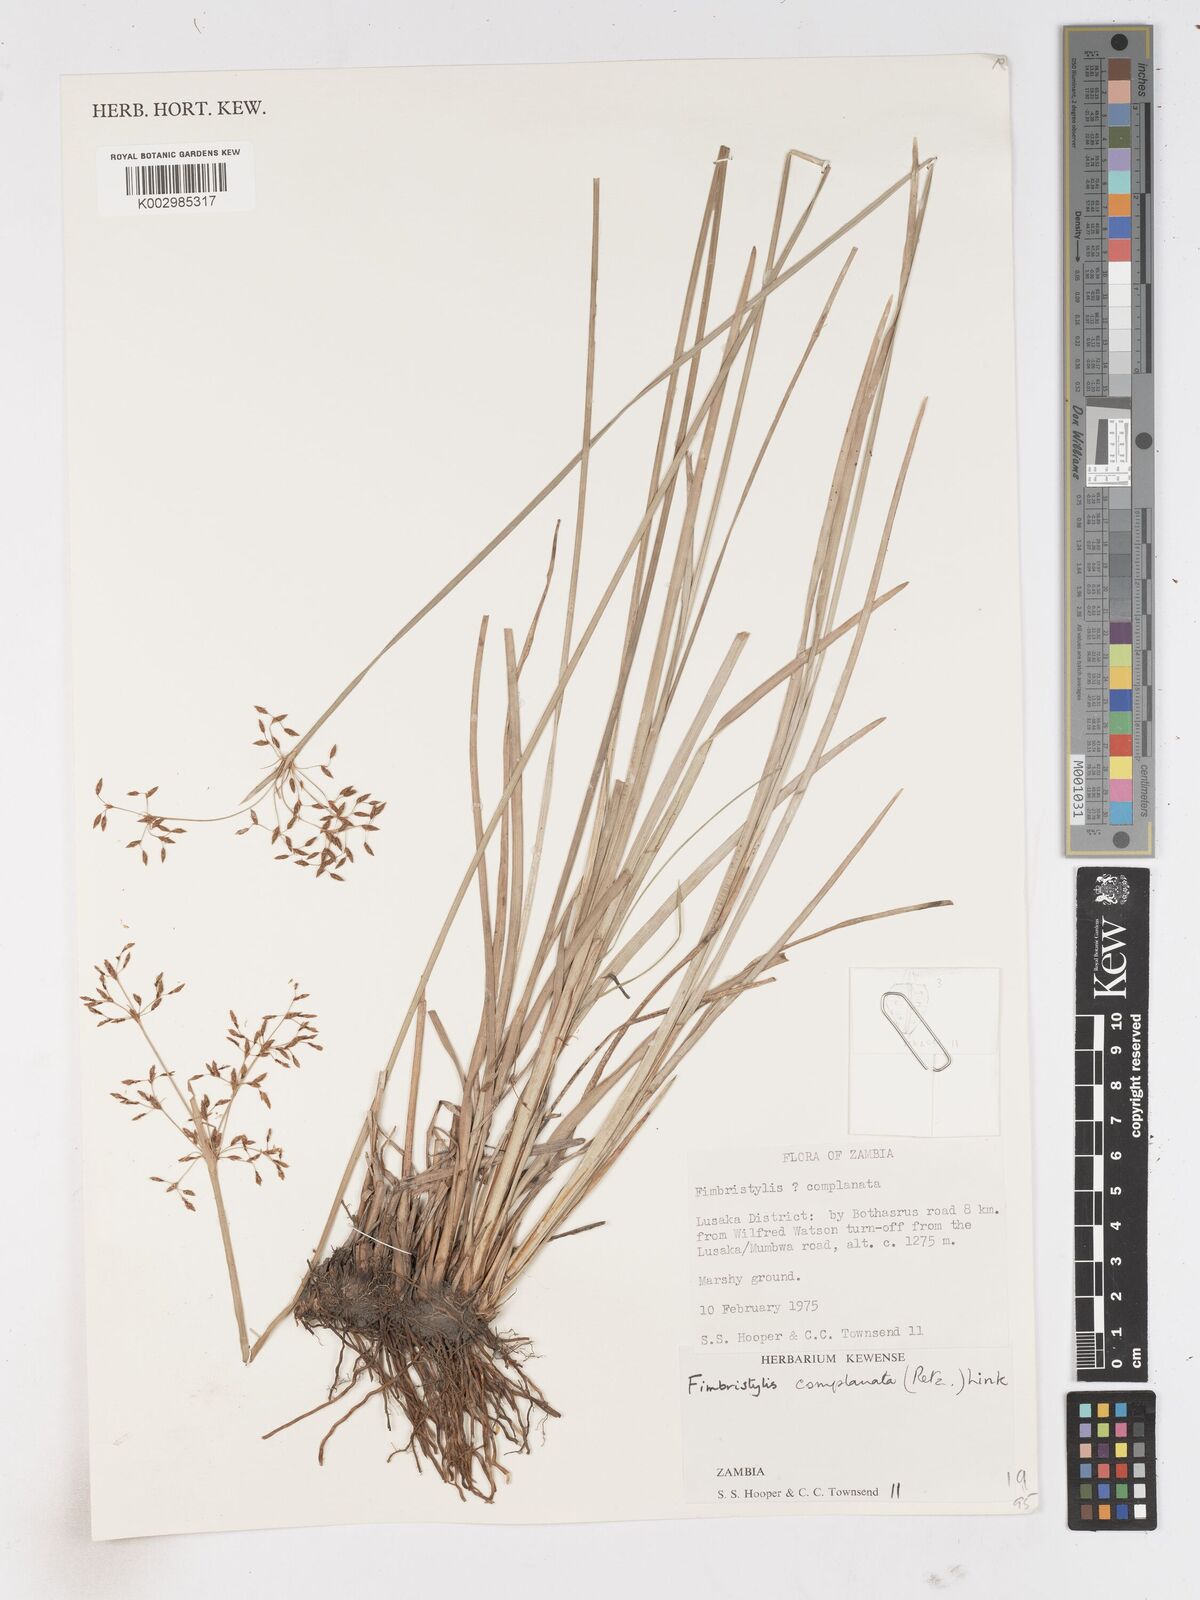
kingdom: Plantae
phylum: Tracheophyta
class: Liliopsida
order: Poales
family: Cyperaceae
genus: Fimbristylis
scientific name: Fimbristylis complanata
